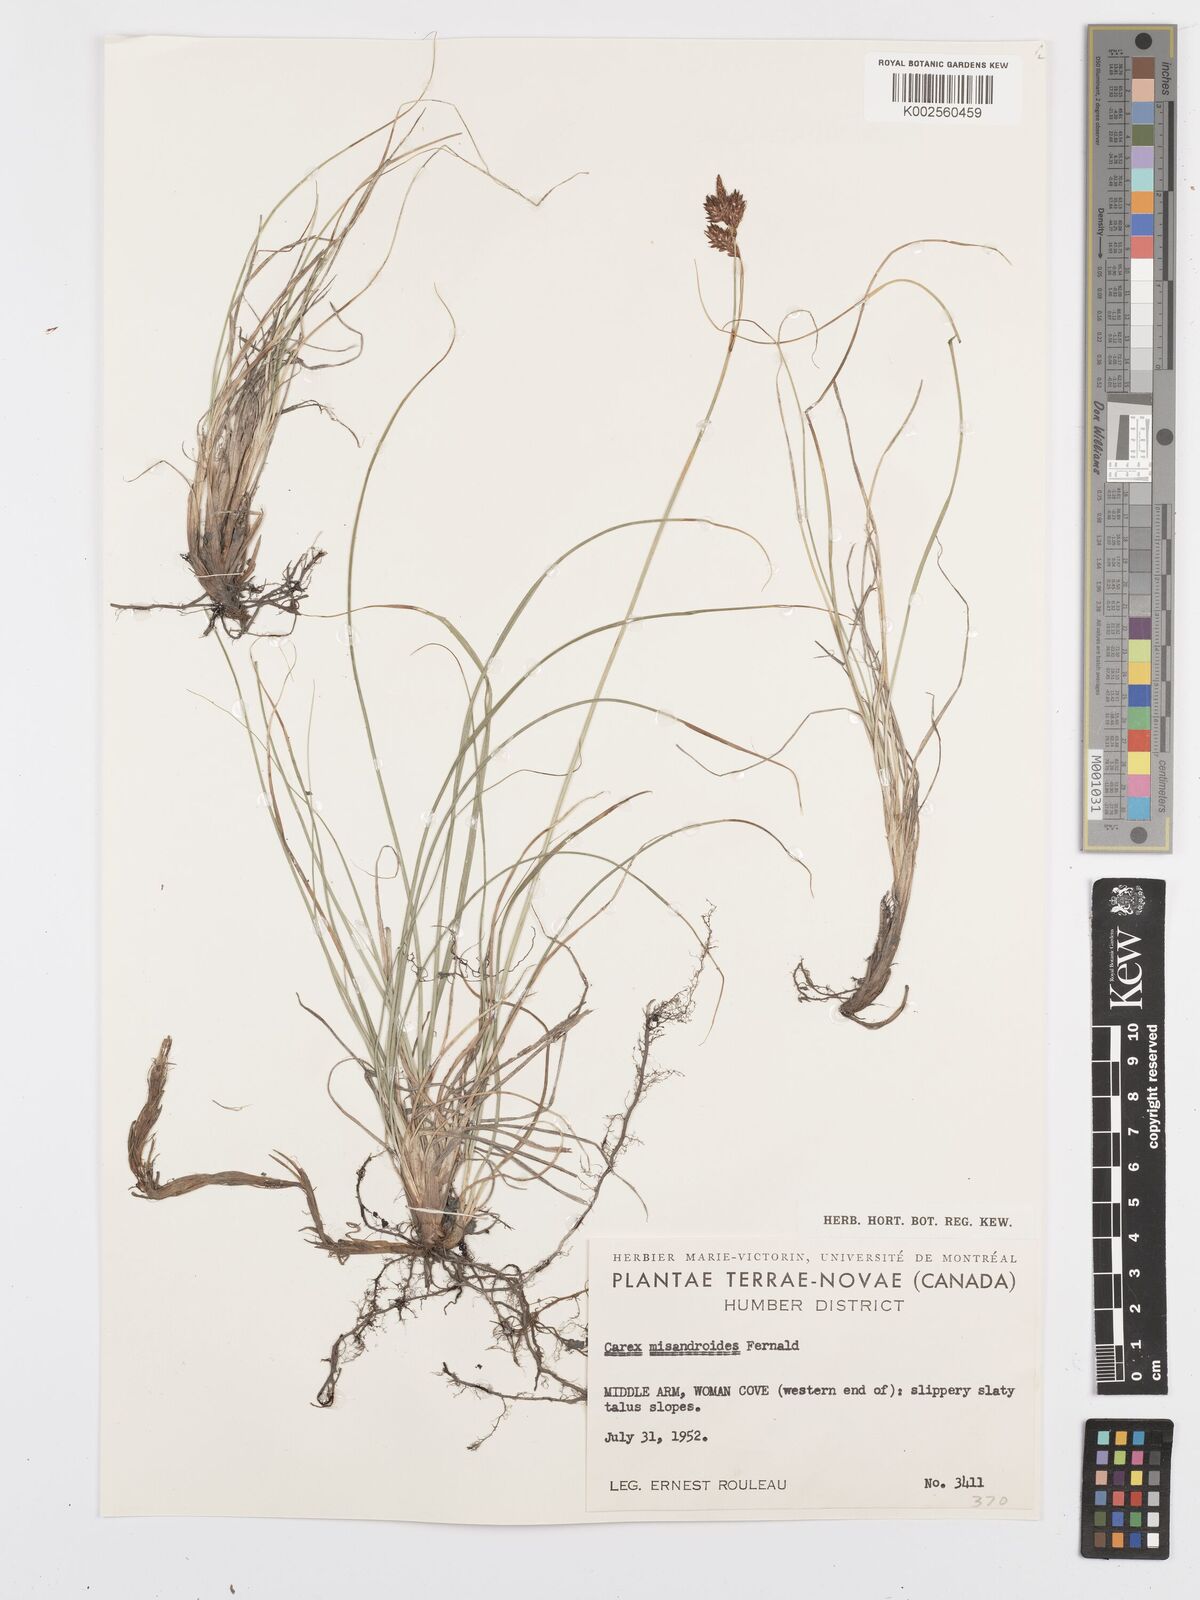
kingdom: Plantae
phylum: Tracheophyta
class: Liliopsida
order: Poales
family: Cyperaceae
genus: Carex
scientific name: Carex petricosa
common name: Rock sedge
